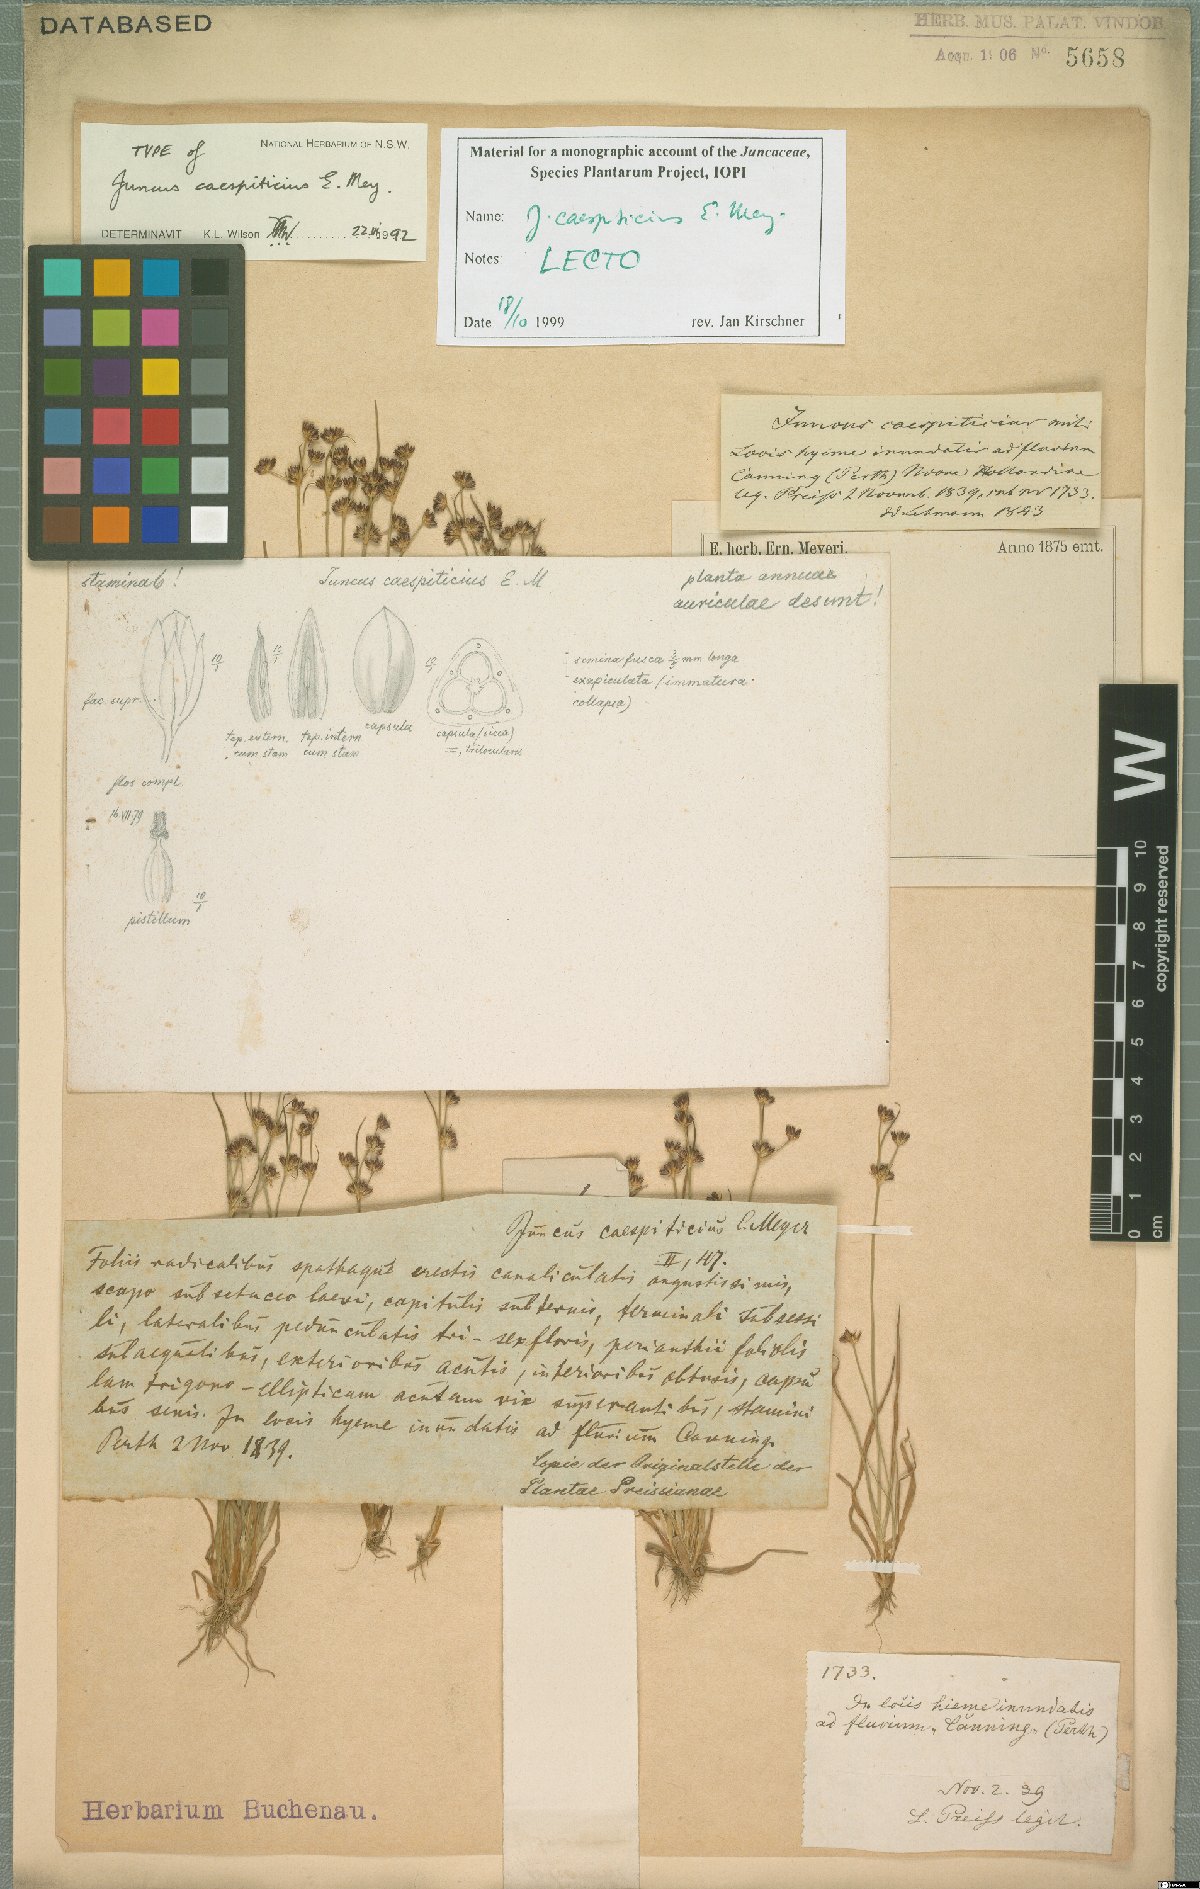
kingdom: Plantae
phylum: Tracheophyta
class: Liliopsida
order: Poales
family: Juncaceae
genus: Juncus
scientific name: Juncus caespiticius
